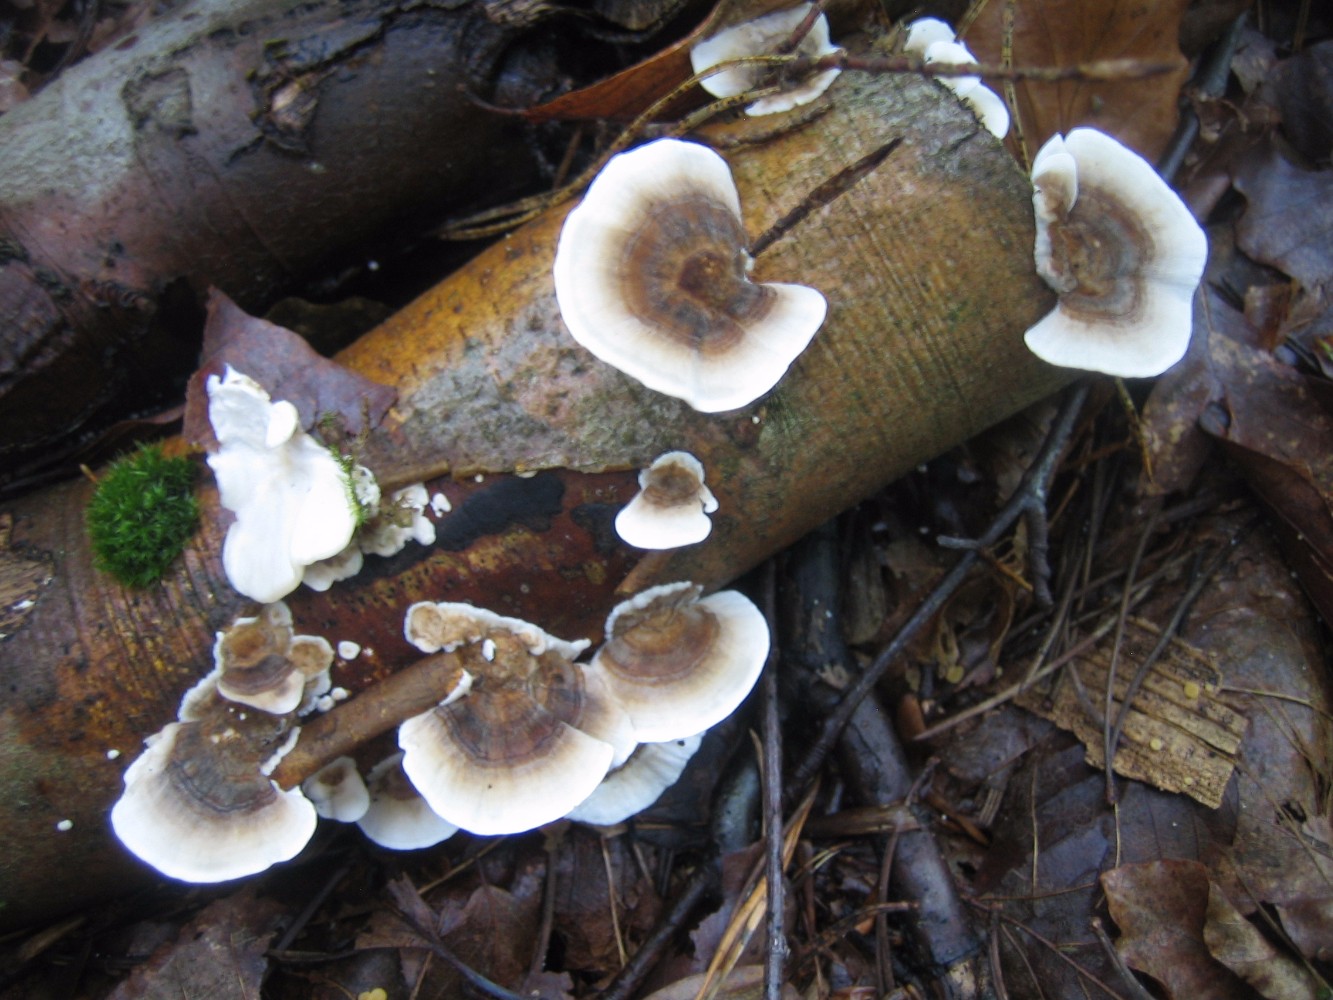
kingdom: Fungi
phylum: Basidiomycota
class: Agaricomycetes
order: Polyporales
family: Polyporaceae
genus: Trametes
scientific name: Trametes versicolor
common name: broget læderporesvamp
